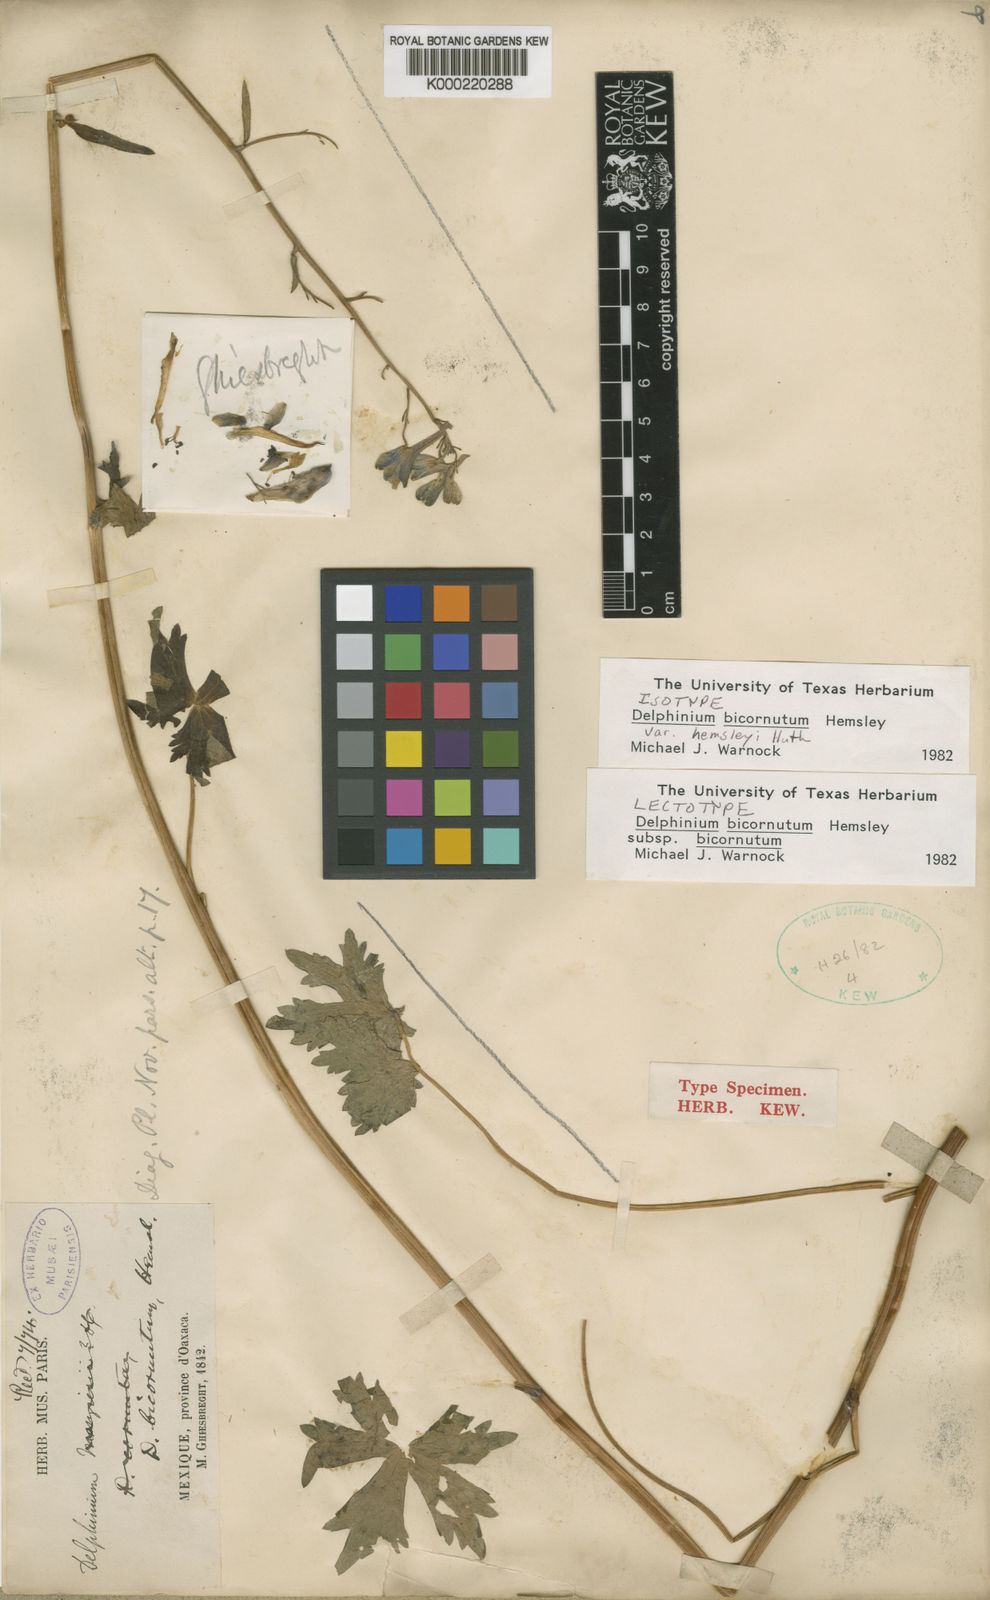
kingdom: Plantae
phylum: Tracheophyta
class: Magnoliopsida
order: Ranunculales
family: Ranunculaceae
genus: Delphinium
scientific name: Delphinium bicornutum
